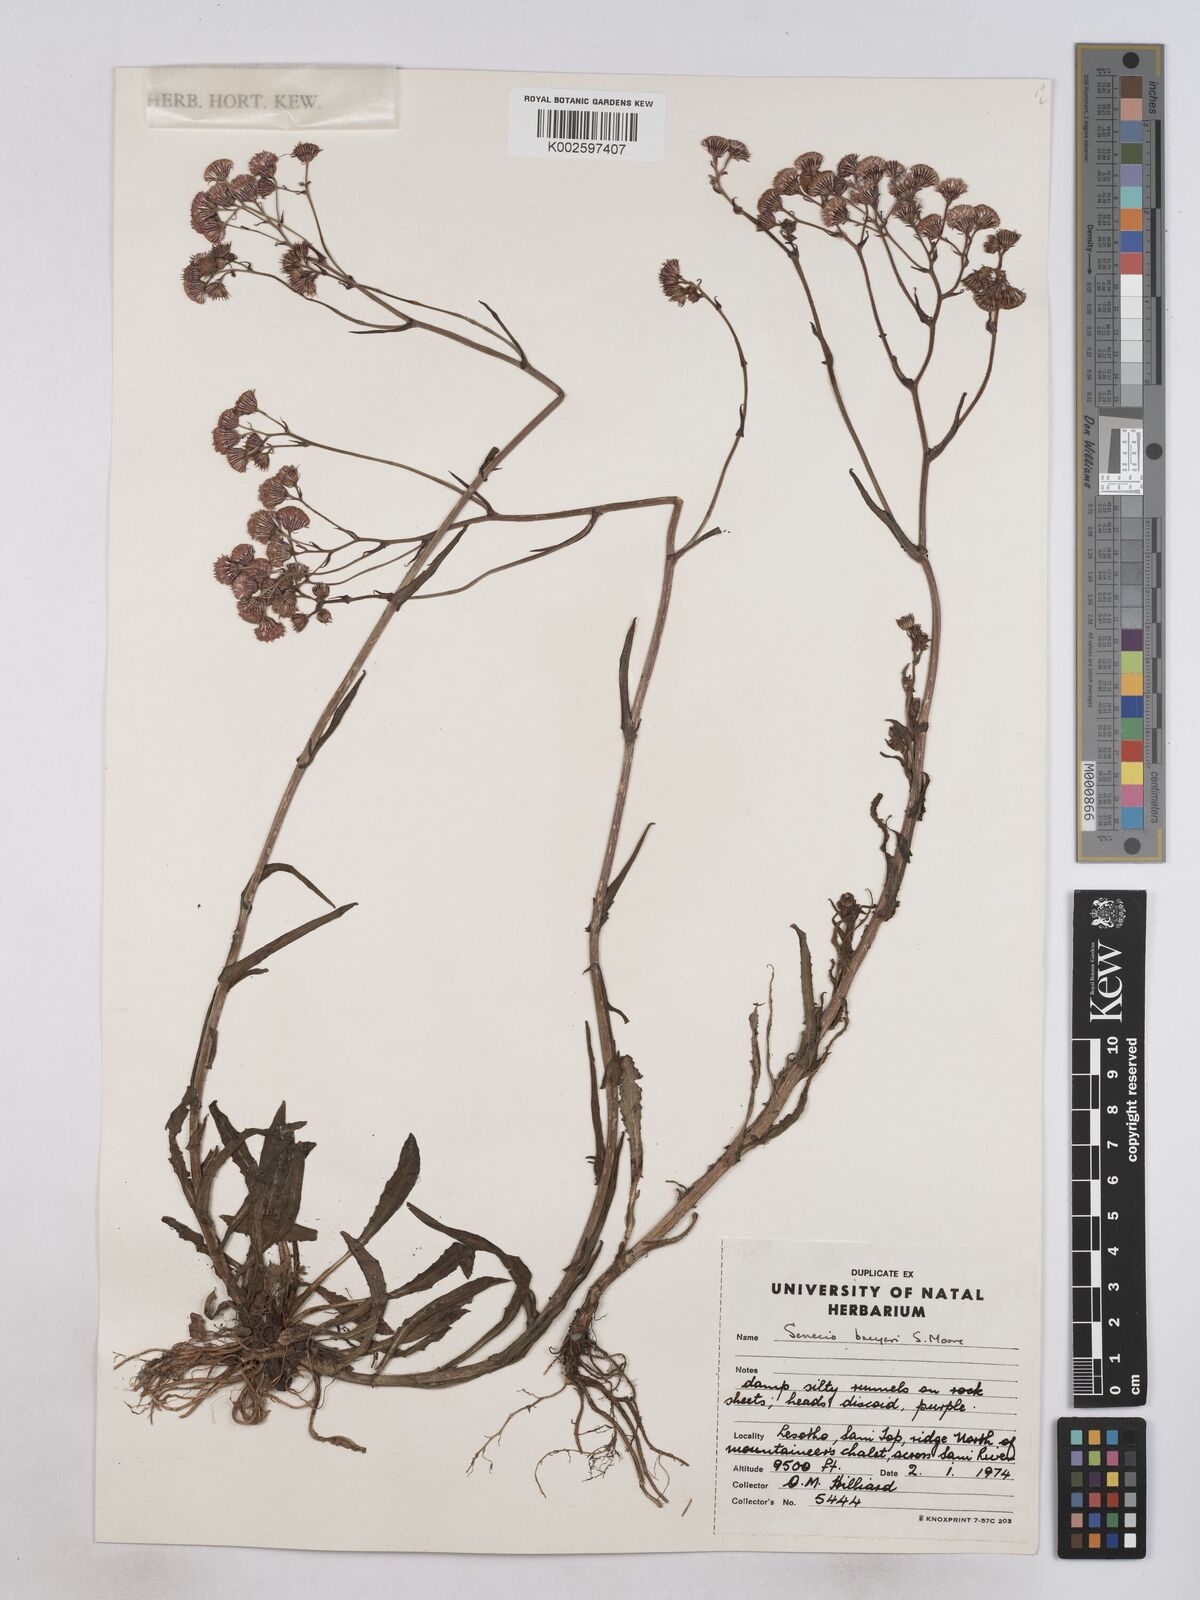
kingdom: Plantae
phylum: Tracheophyta
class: Magnoliopsida
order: Asterales
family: Asteraceae
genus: Senecio
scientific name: Senecio polyodon
